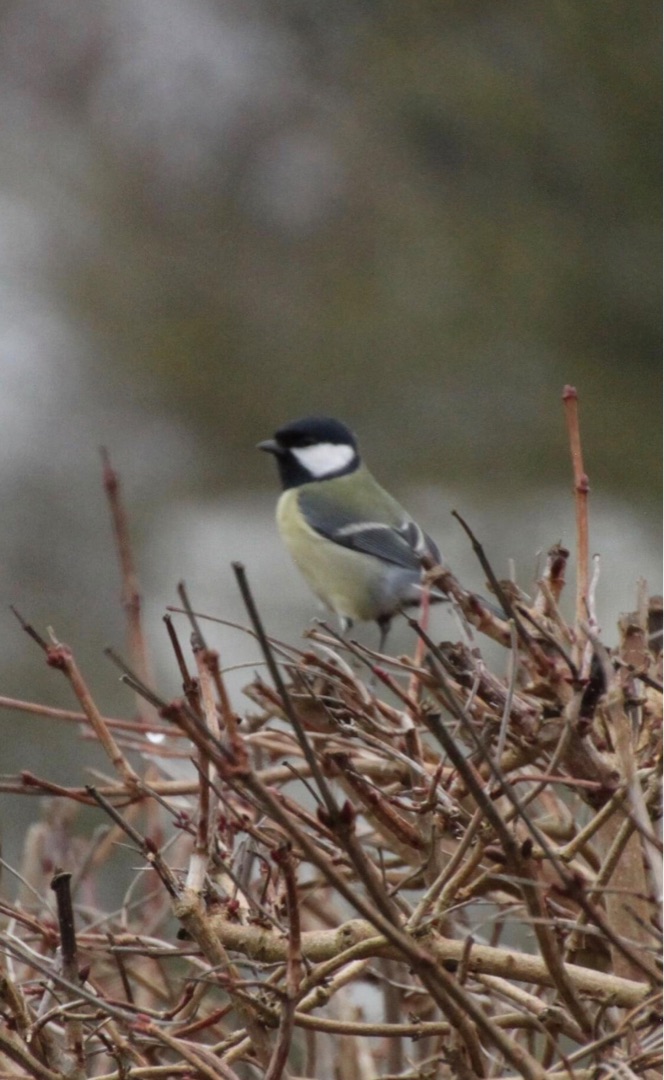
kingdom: Animalia
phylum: Chordata
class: Aves
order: Passeriformes
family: Paridae
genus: Parus
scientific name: Parus major
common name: Musvit
